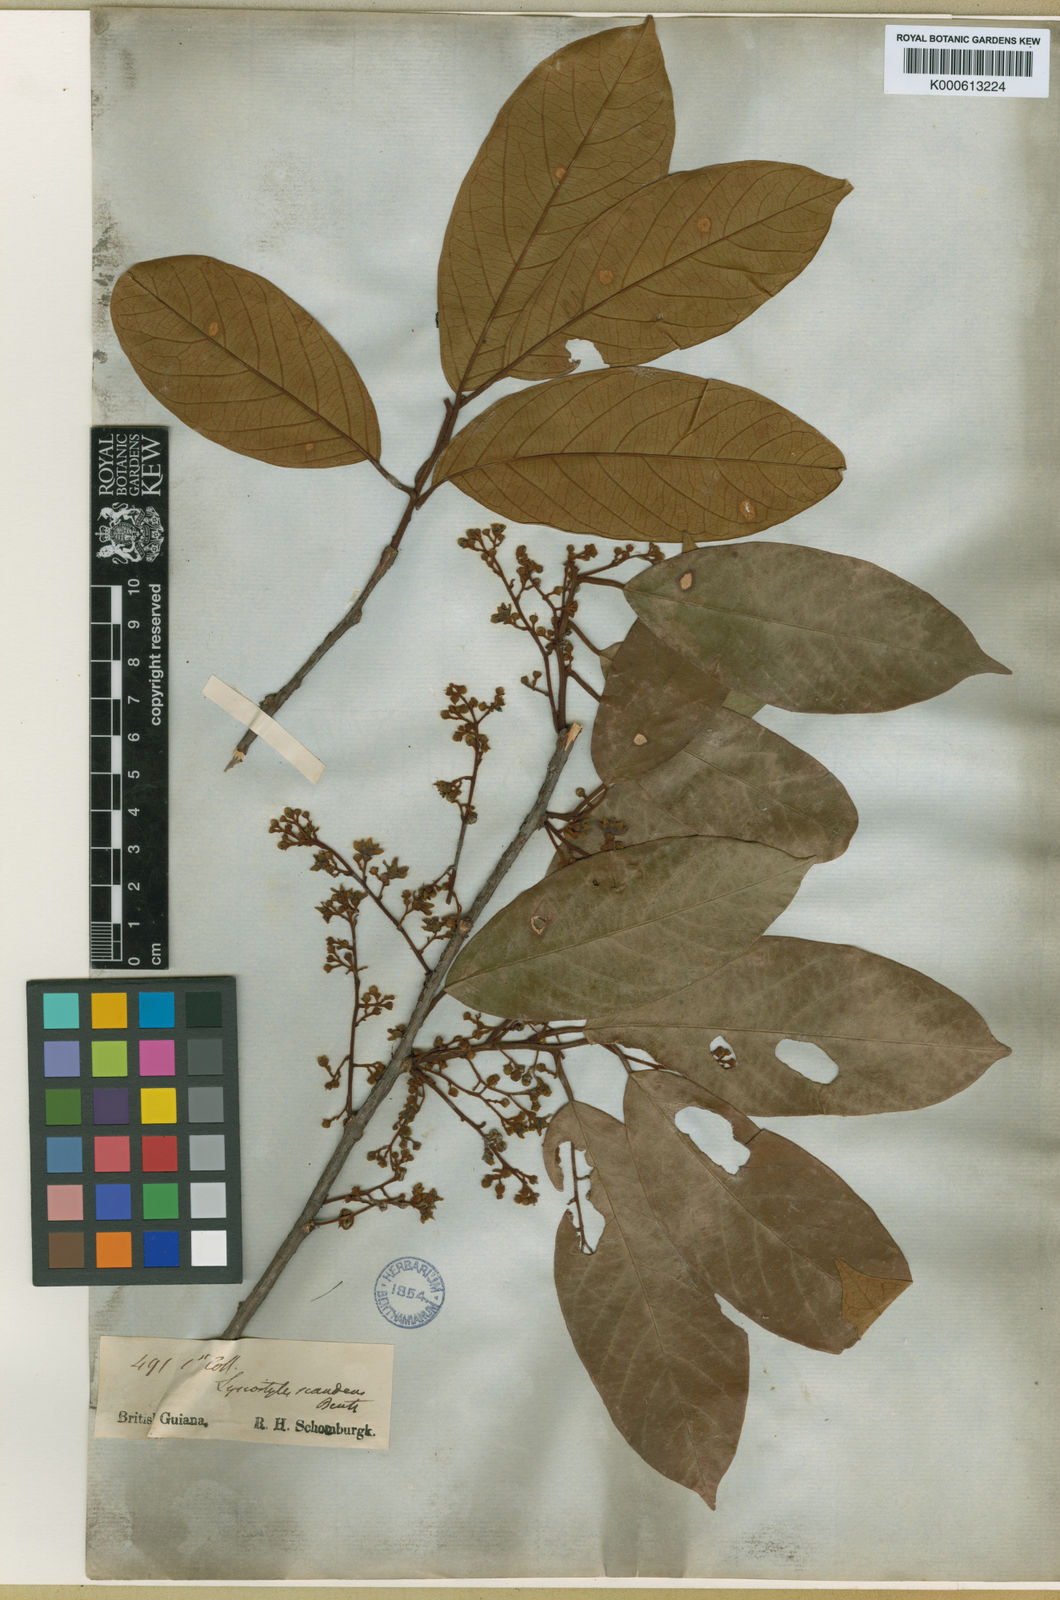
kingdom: Plantae
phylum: Tracheophyta
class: Magnoliopsida
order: Solanales
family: Convolvulaceae
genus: Lysiostyles
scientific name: Lysiostyles scandens
